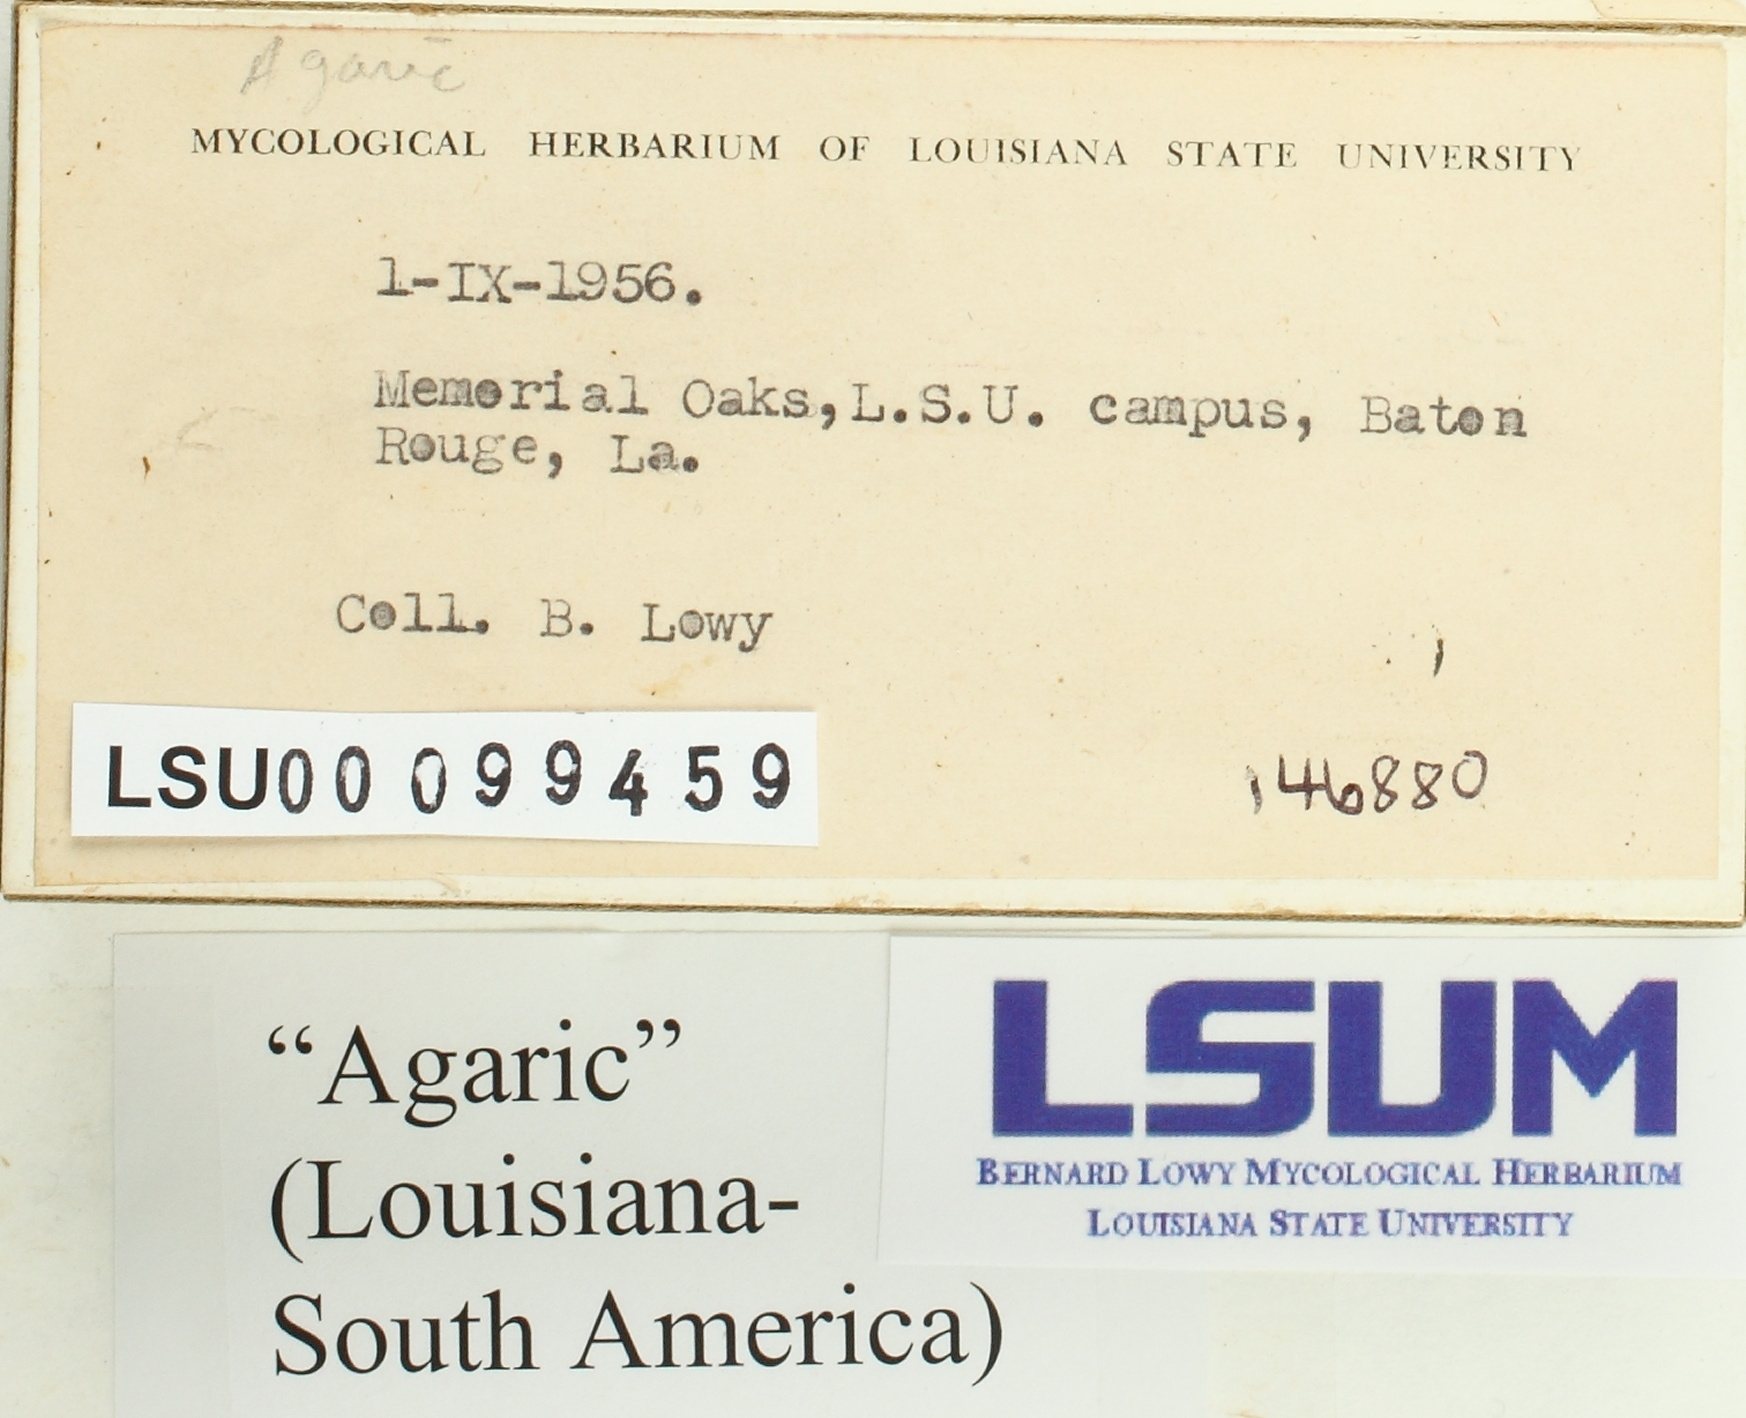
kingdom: Fungi
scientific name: Fungi
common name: Fungi
